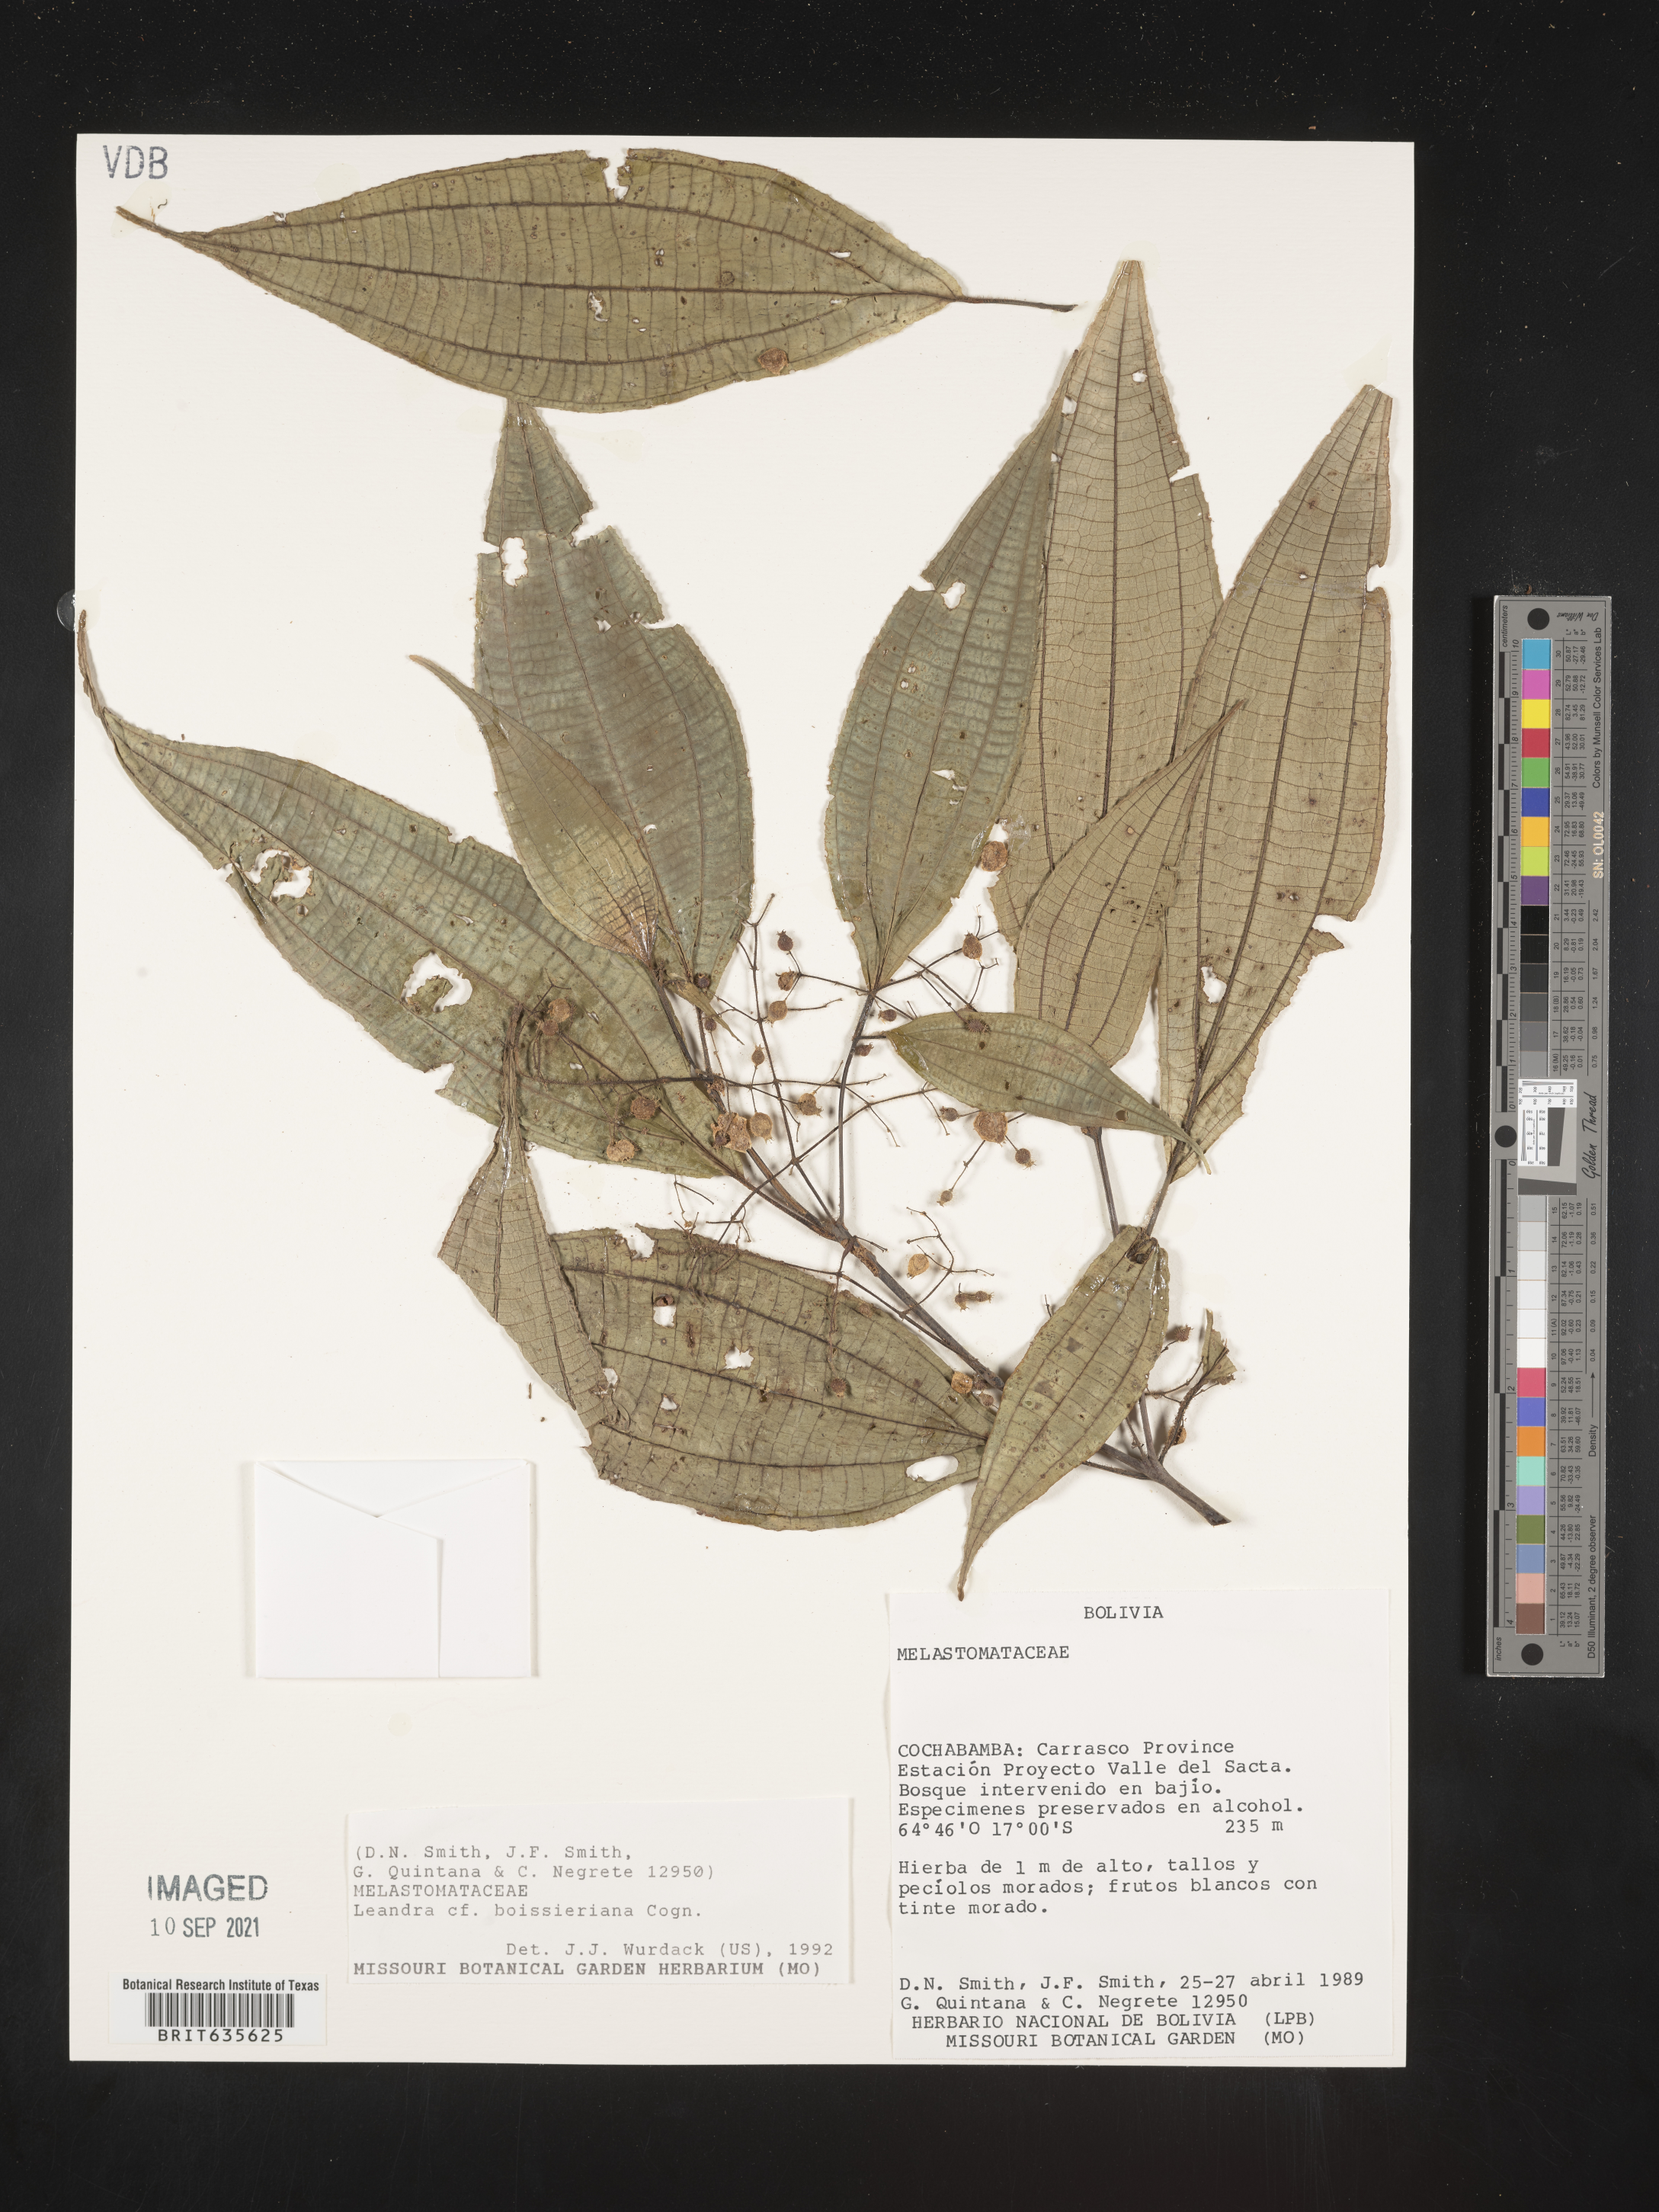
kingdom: Plantae
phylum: Tracheophyta
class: Magnoliopsida
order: Myrtales
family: Melastomataceae
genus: Miconia
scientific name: Miconia
